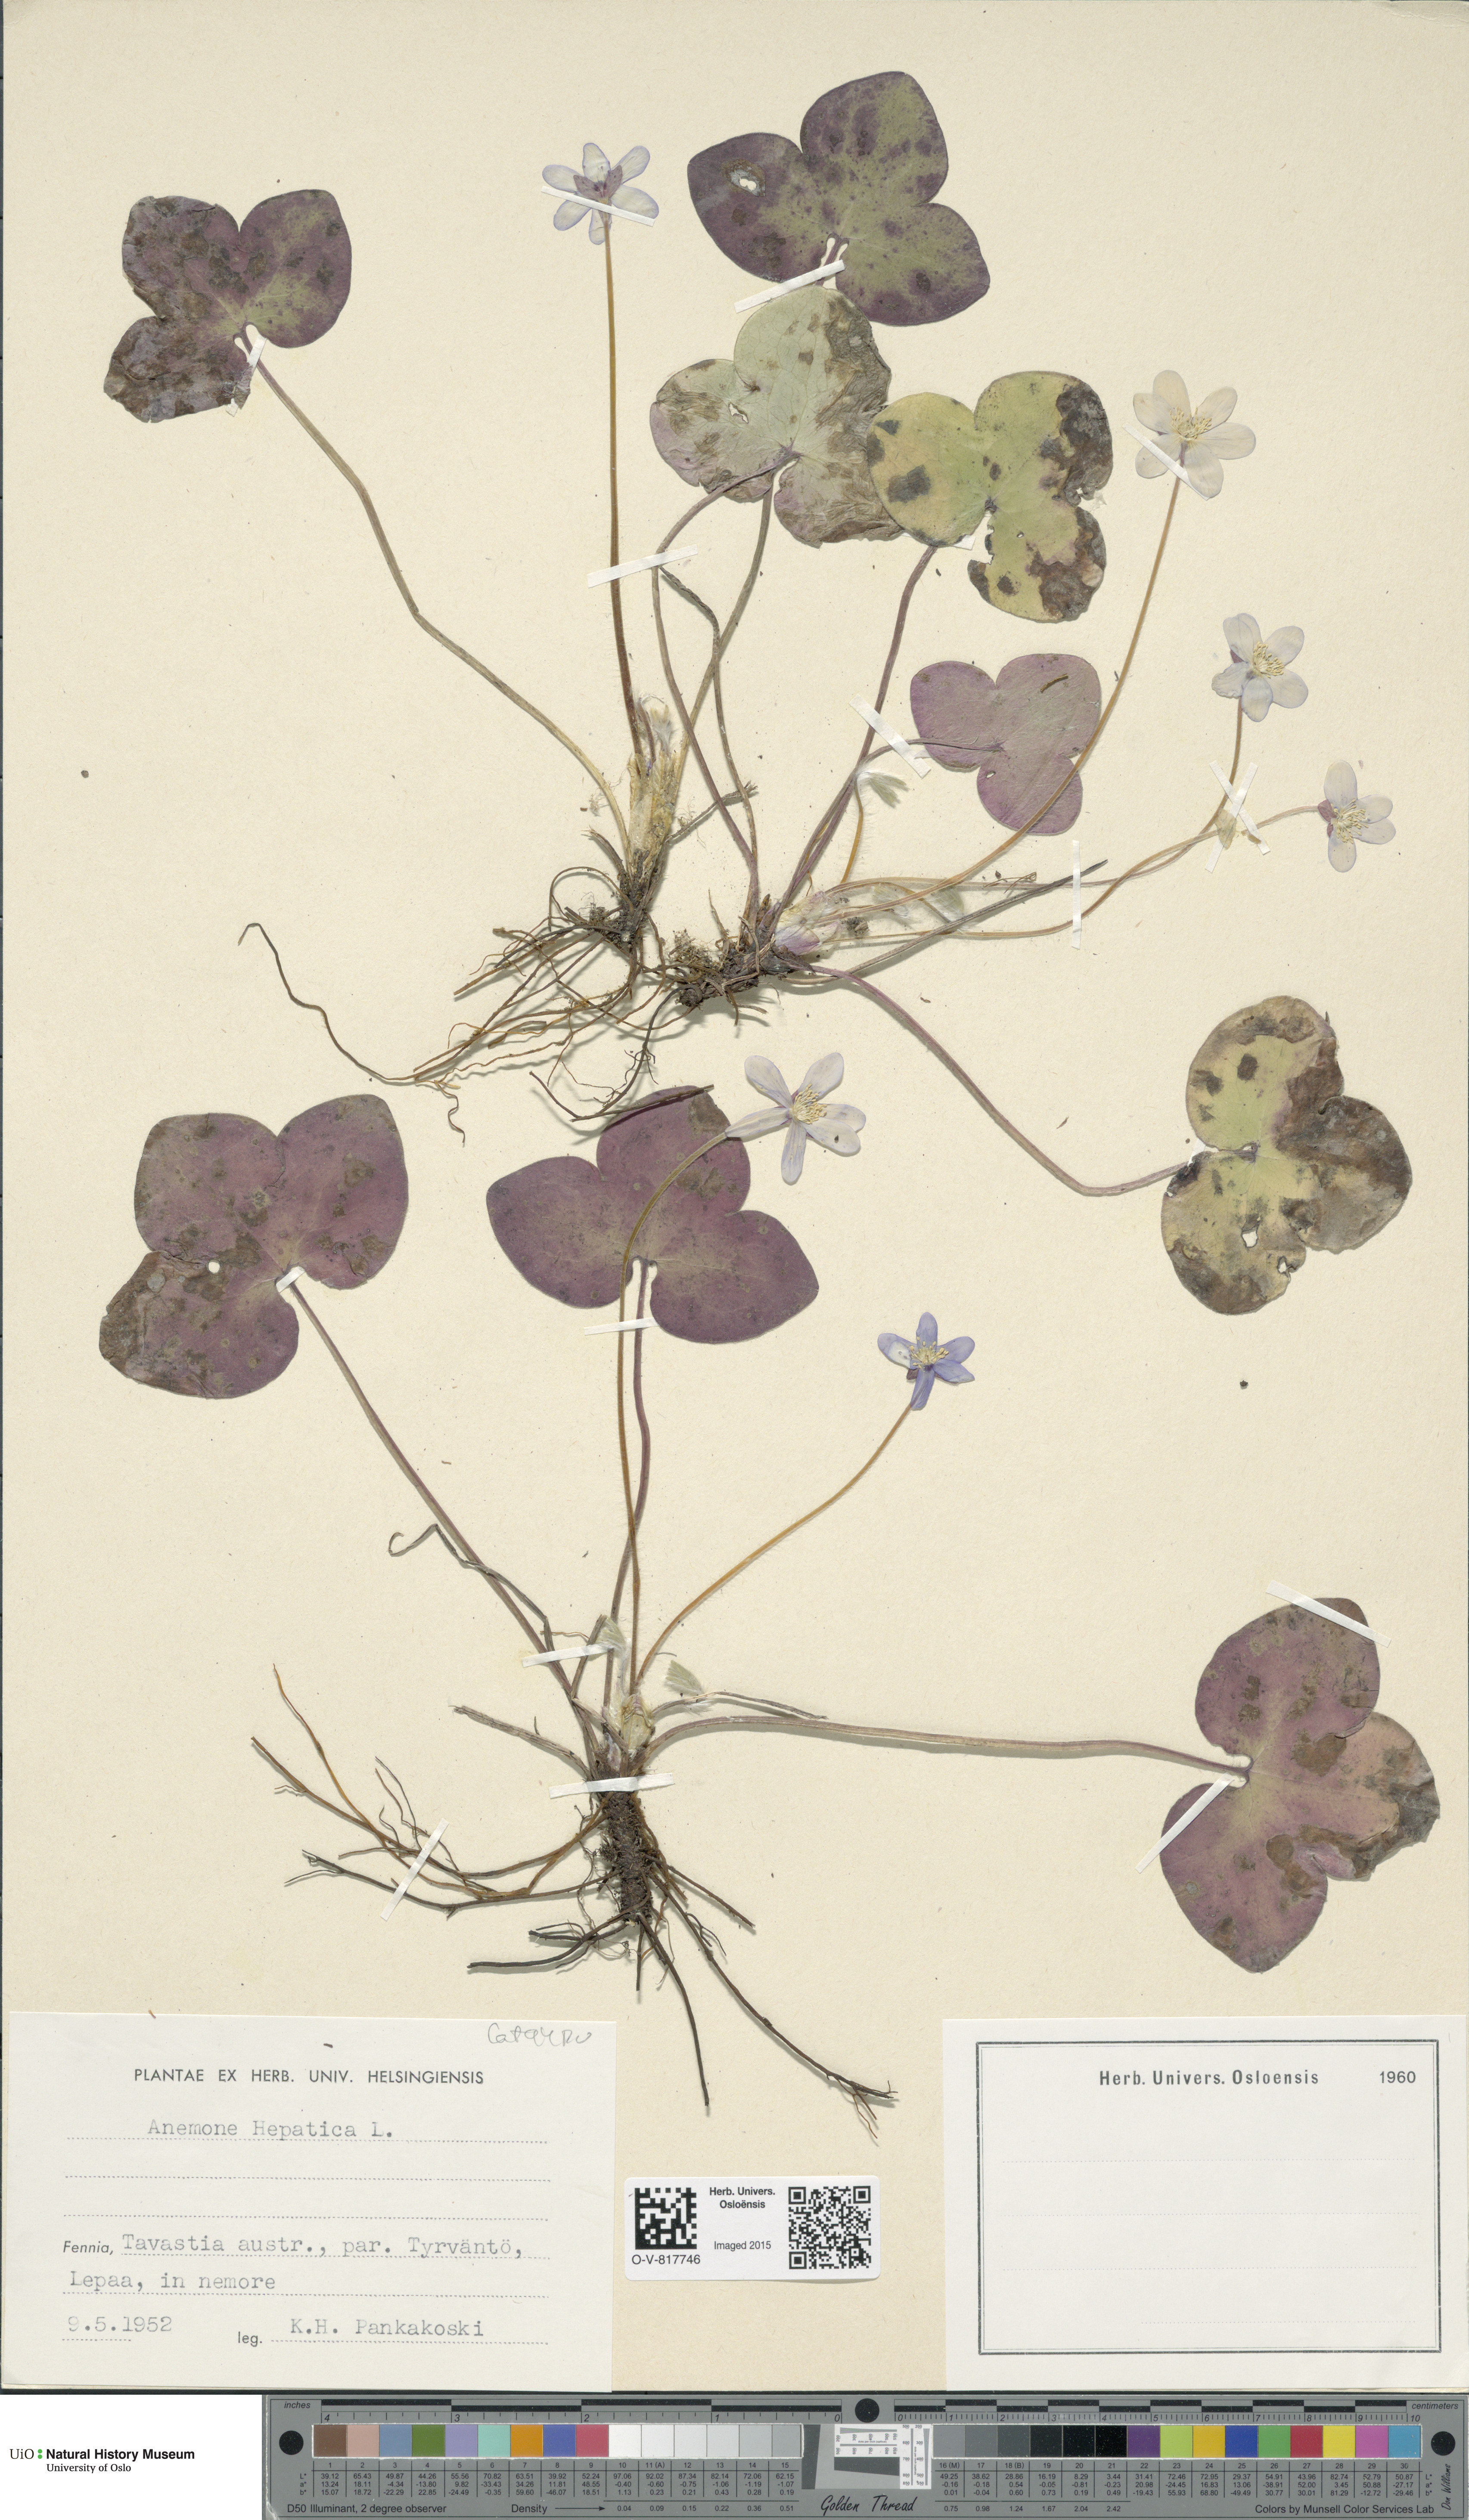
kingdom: Plantae
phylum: Tracheophyta
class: Magnoliopsida
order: Ranunculales
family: Ranunculaceae
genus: Hepatica
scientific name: Hepatica nobilis
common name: Liverleaf
